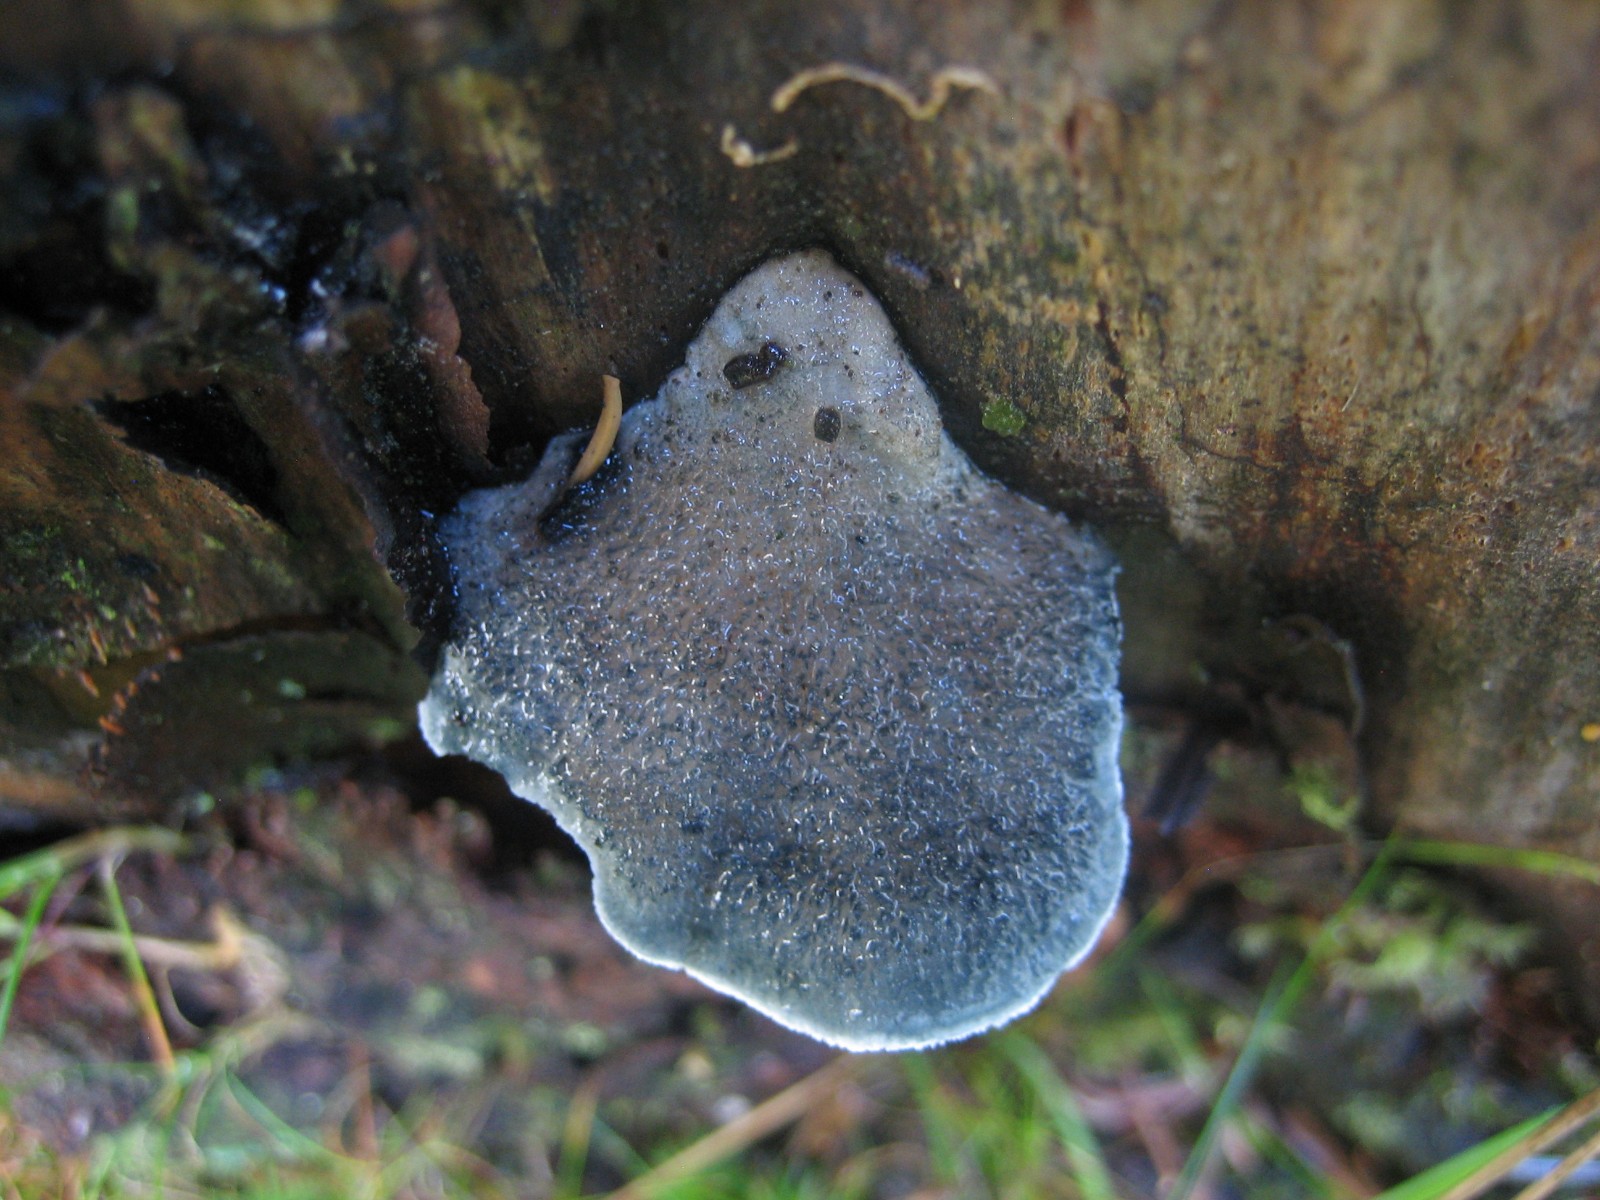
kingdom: Fungi
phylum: Basidiomycota
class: Agaricomycetes
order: Polyporales
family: Polyporaceae
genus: Cyanosporus
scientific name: Cyanosporus caesius
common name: blålig kødporesvamp
